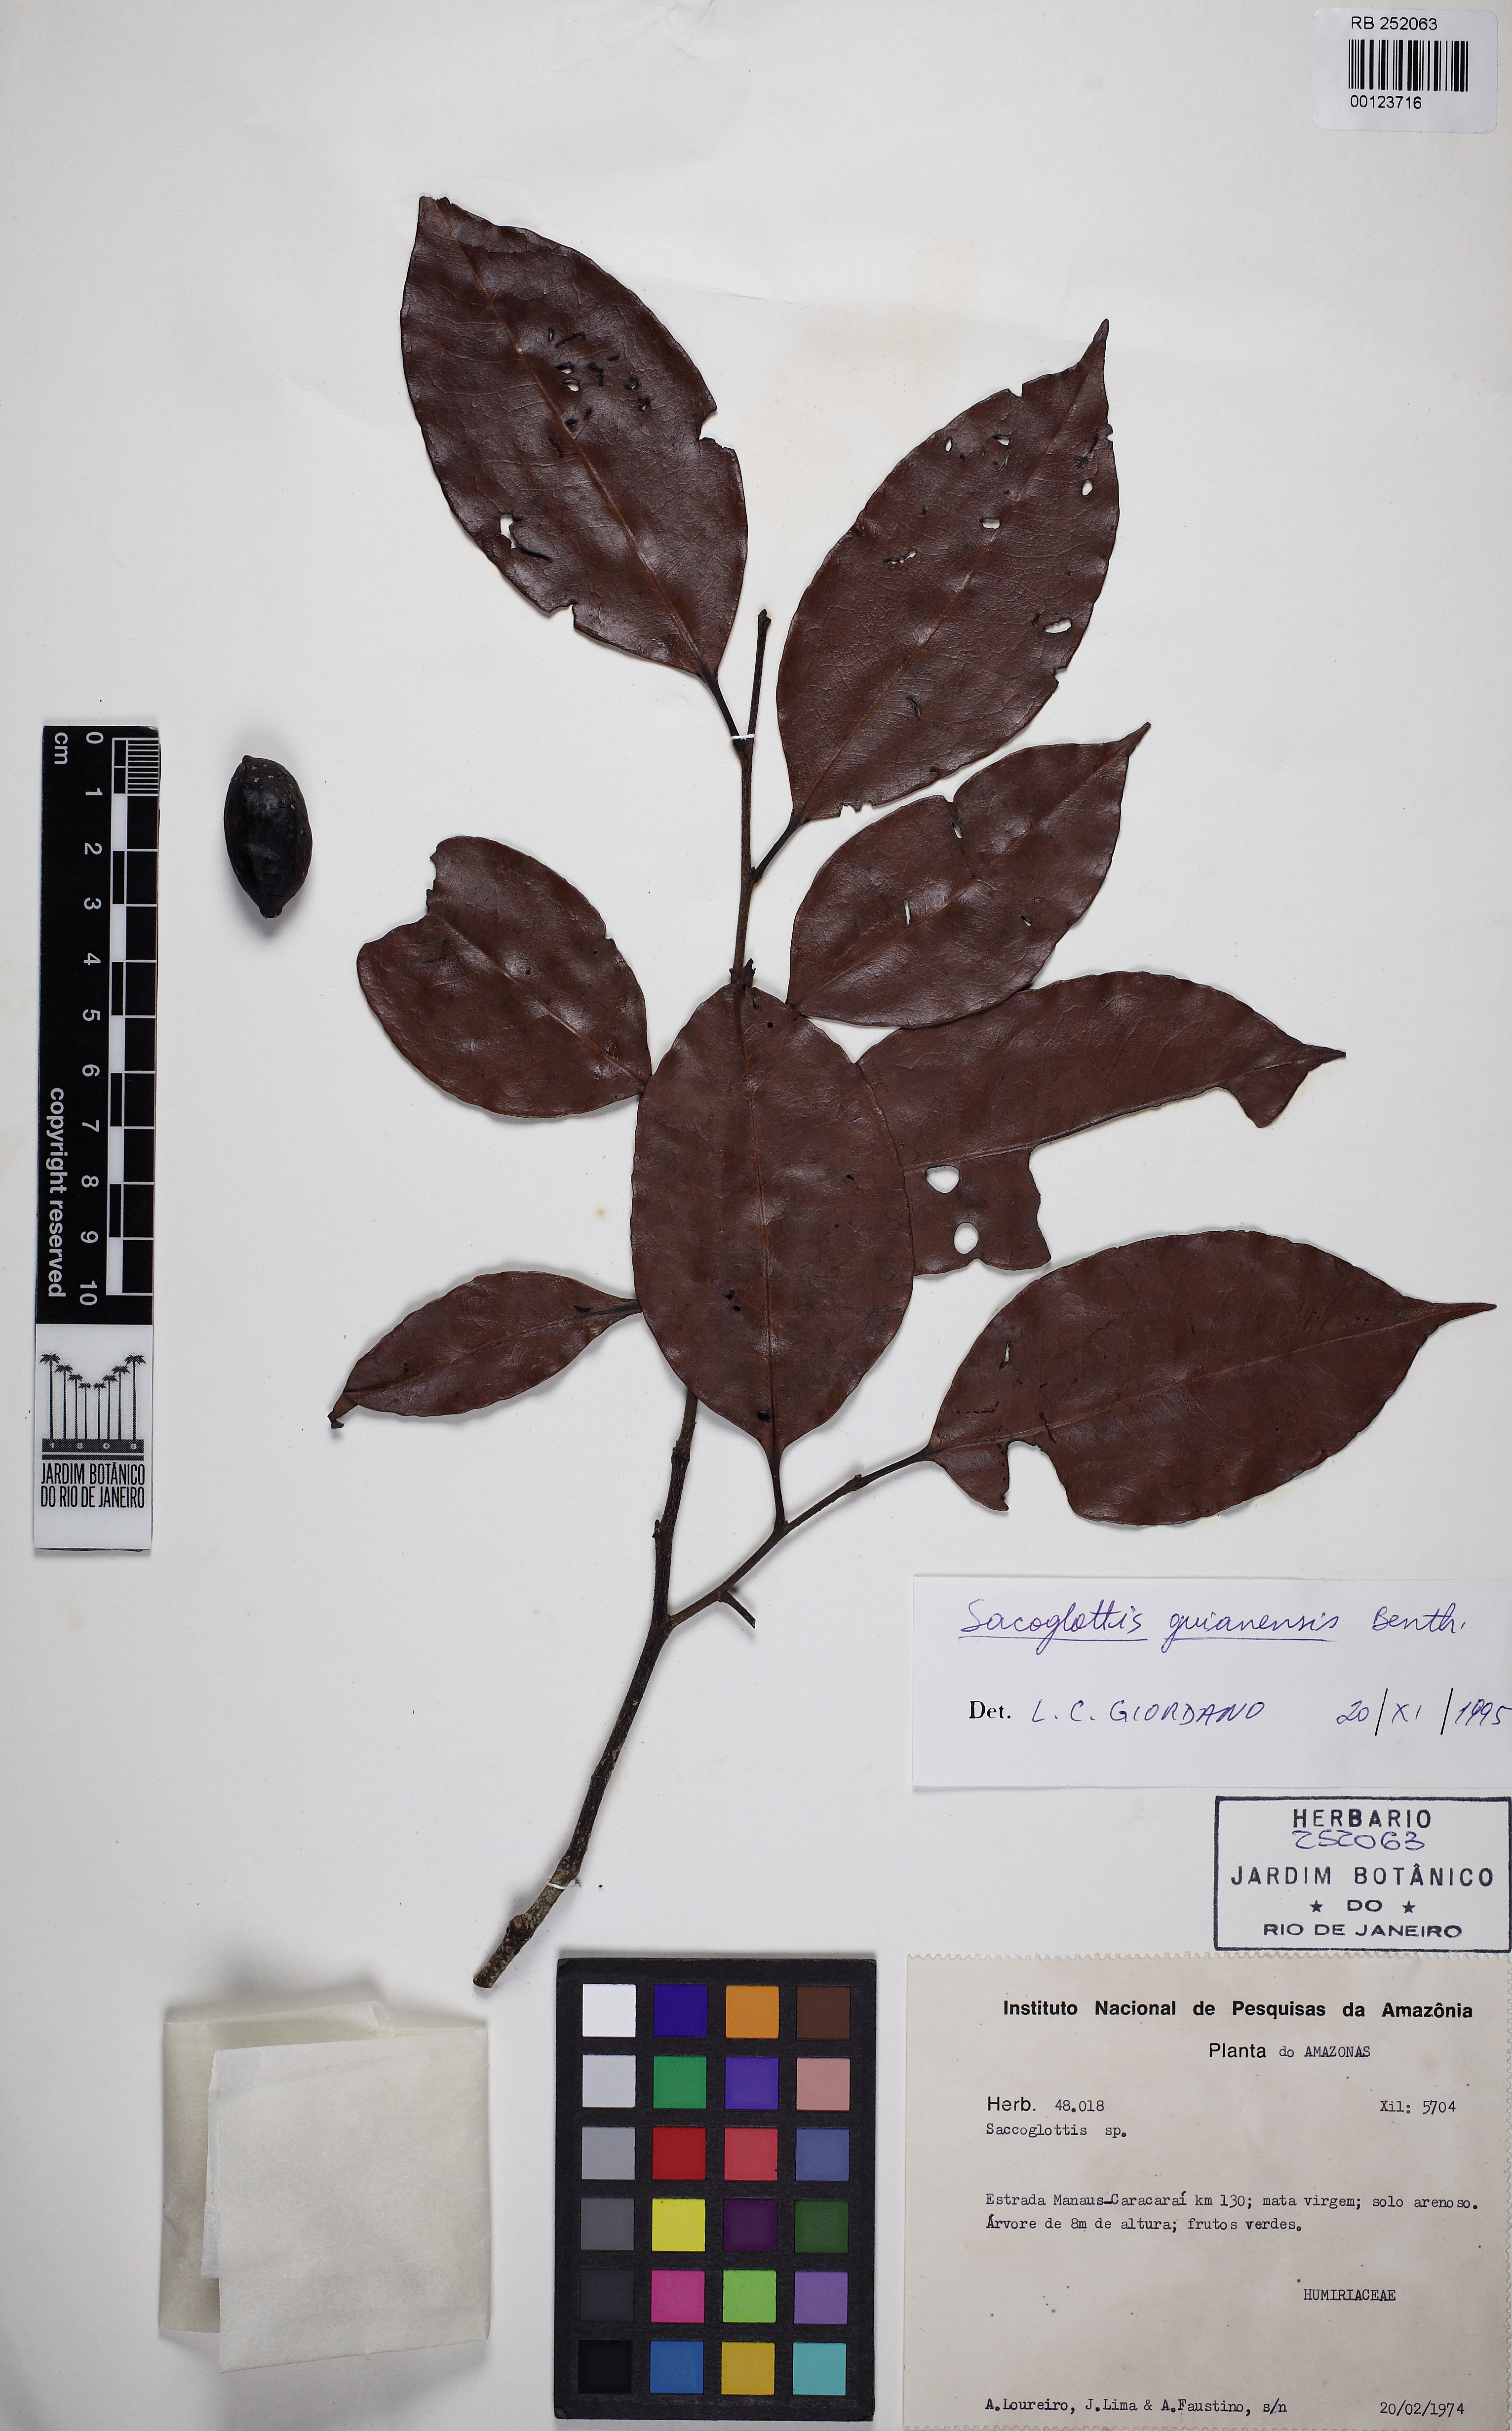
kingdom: Plantae
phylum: Tracheophyta
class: Magnoliopsida
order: Malpighiales
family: Humiriaceae
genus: Sacoglottis
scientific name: Sacoglottis guianensis
